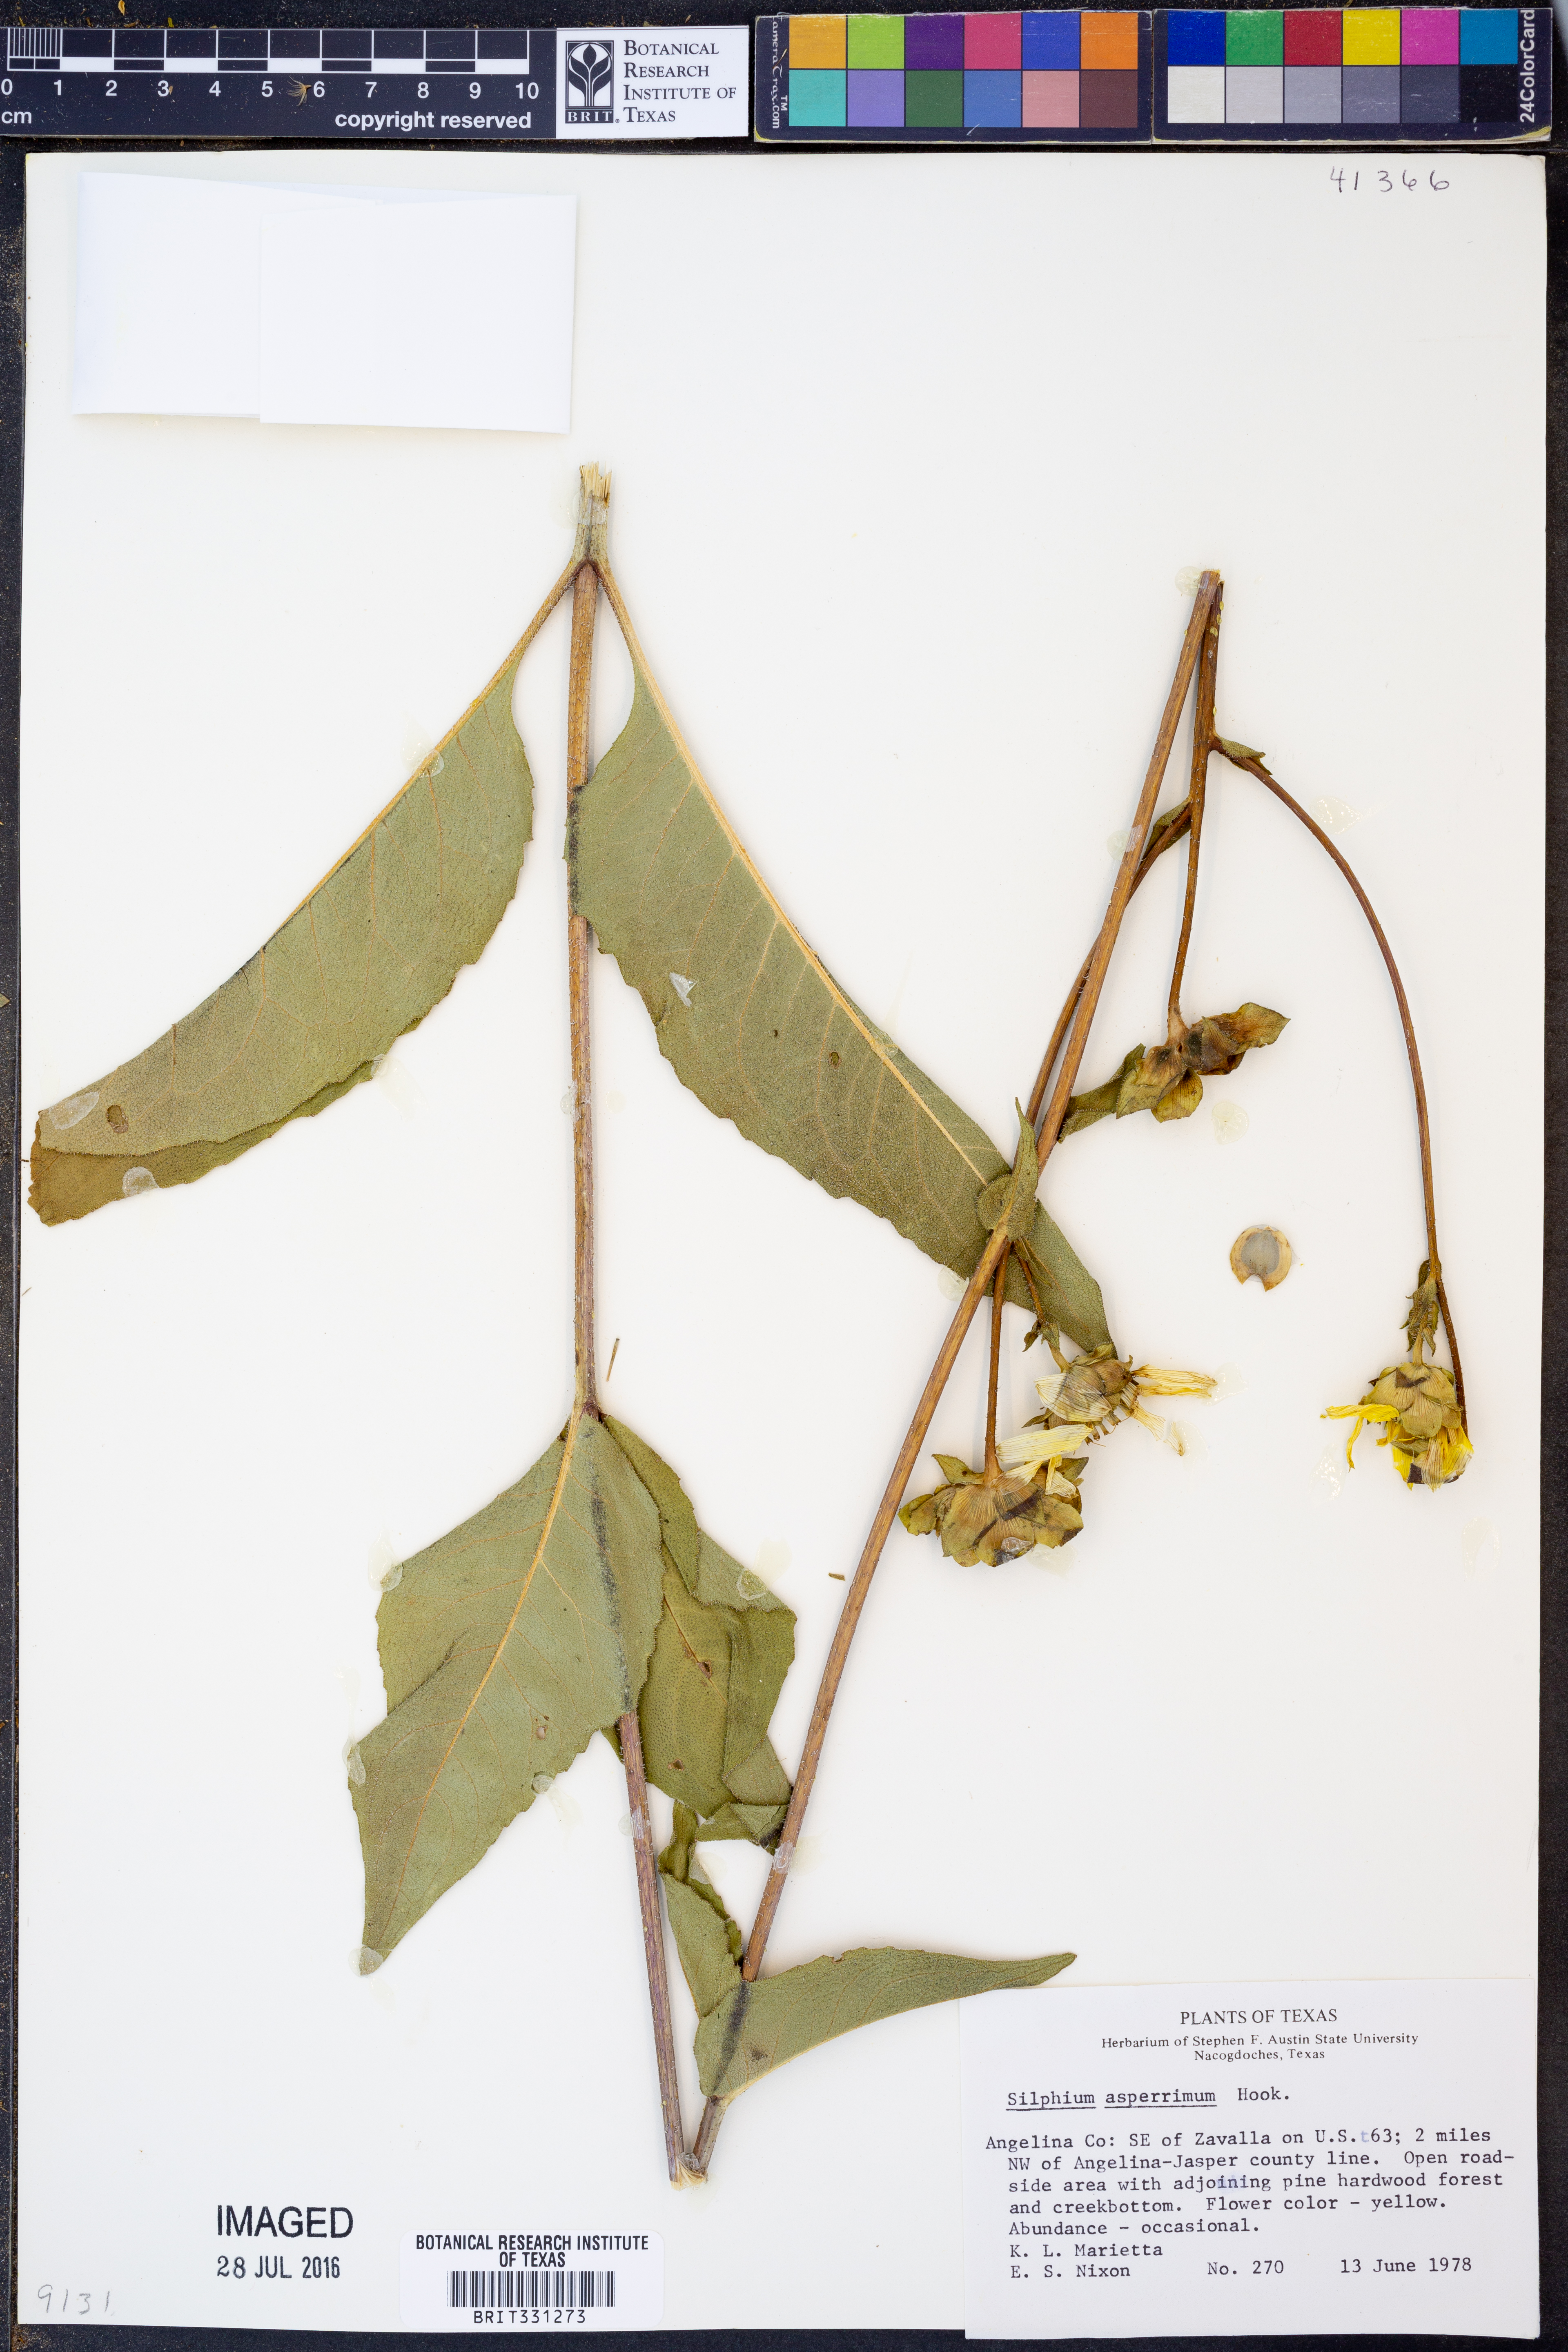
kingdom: Plantae
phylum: Tracheophyta
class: Magnoliopsida
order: Asterales
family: Asteraceae
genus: Silphium
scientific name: Silphium asperrimum
